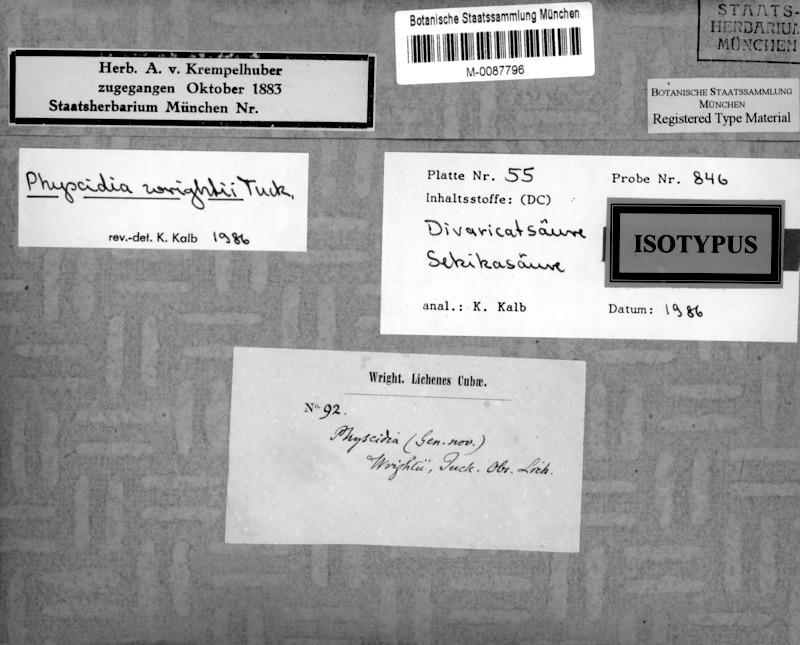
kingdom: Fungi
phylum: Ascomycota
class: Lecanoromycetes
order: Lecanorales
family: Ramalinaceae
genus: Physcidia
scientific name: Physcidia wrightii
